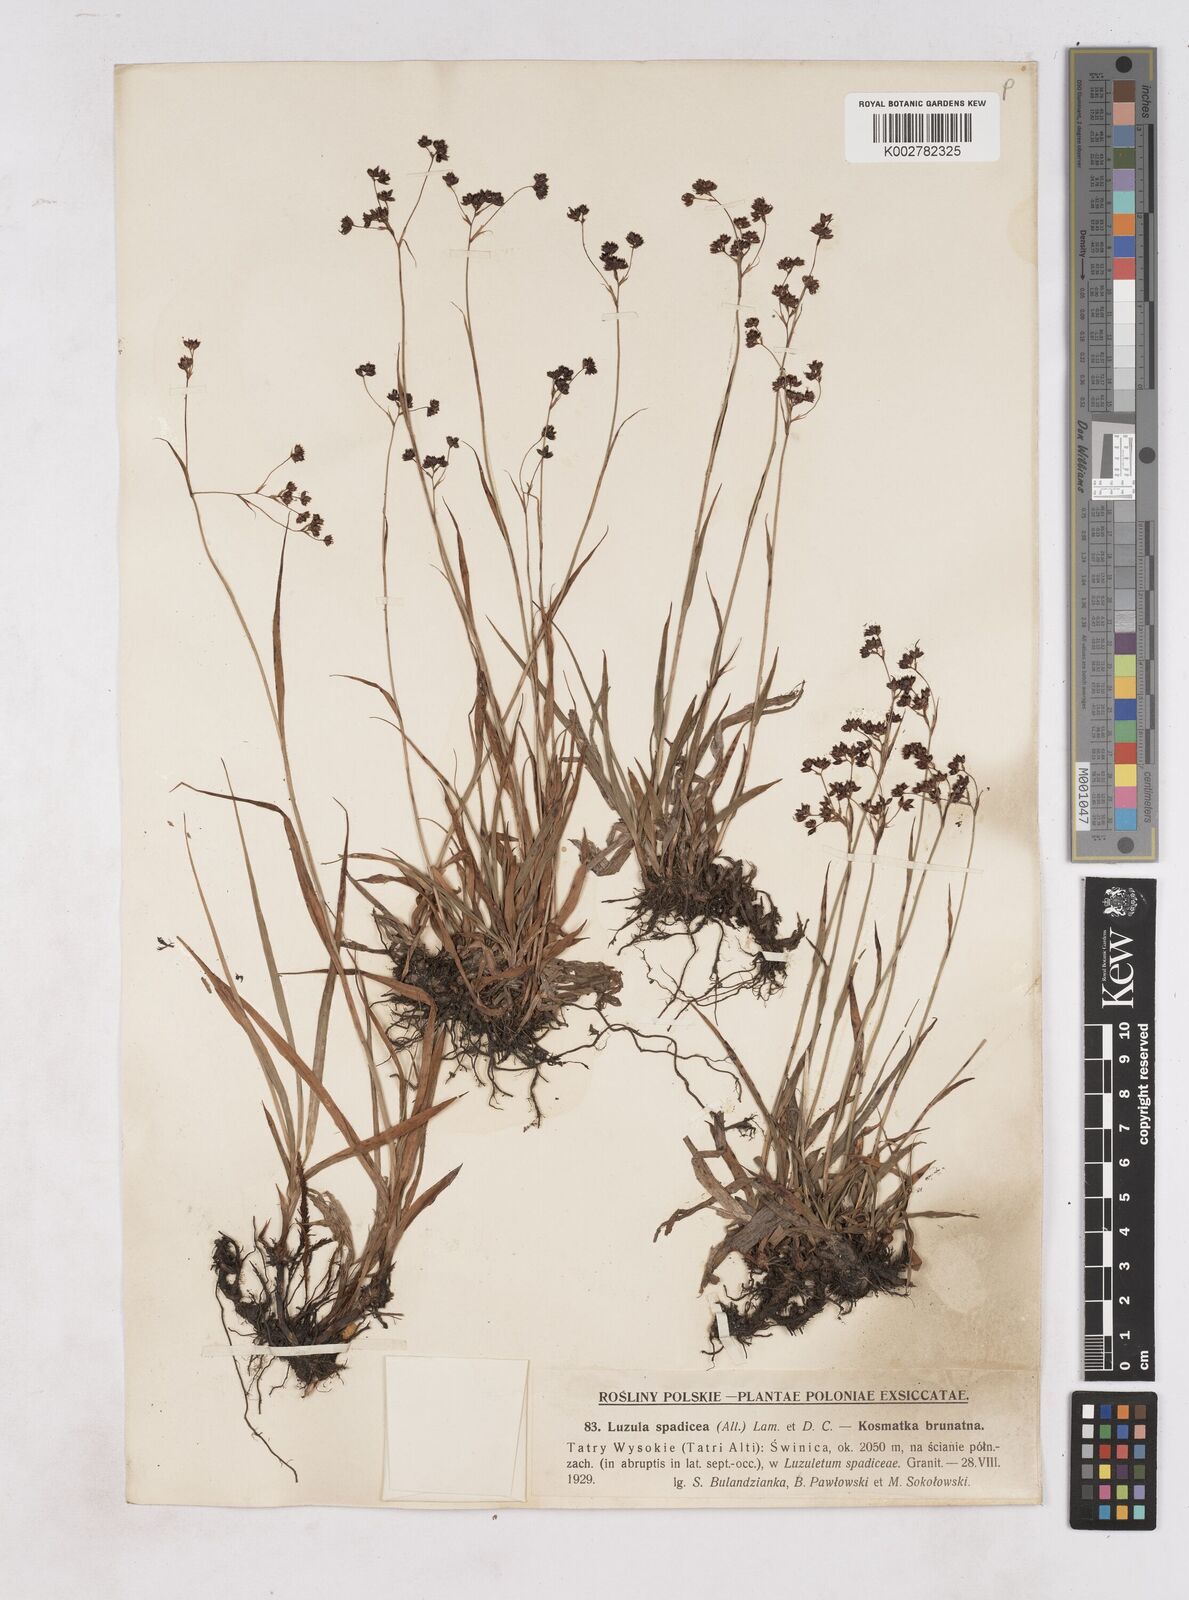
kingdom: Plantae
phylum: Tracheophyta
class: Liliopsida
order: Poales
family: Juncaceae
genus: Luzula
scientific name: Luzula alpinopilosa
